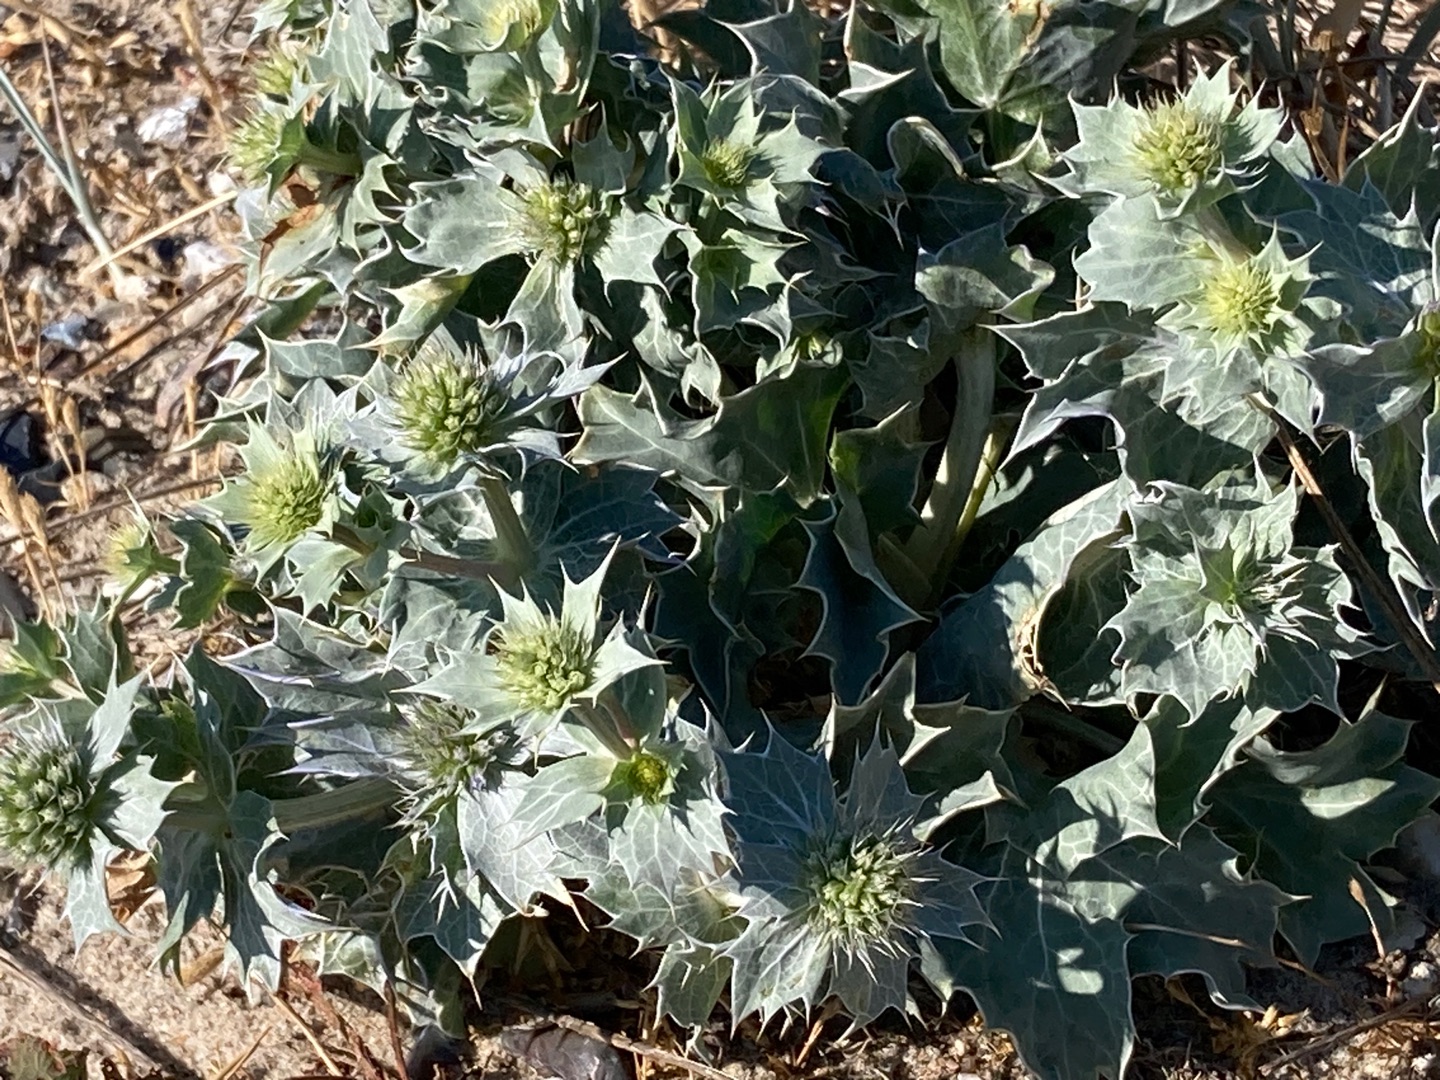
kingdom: Plantae
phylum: Tracheophyta
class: Magnoliopsida
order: Apiales
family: Apiaceae
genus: Eryngium
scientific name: Eryngium maritimum
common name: Strand-mandstro
